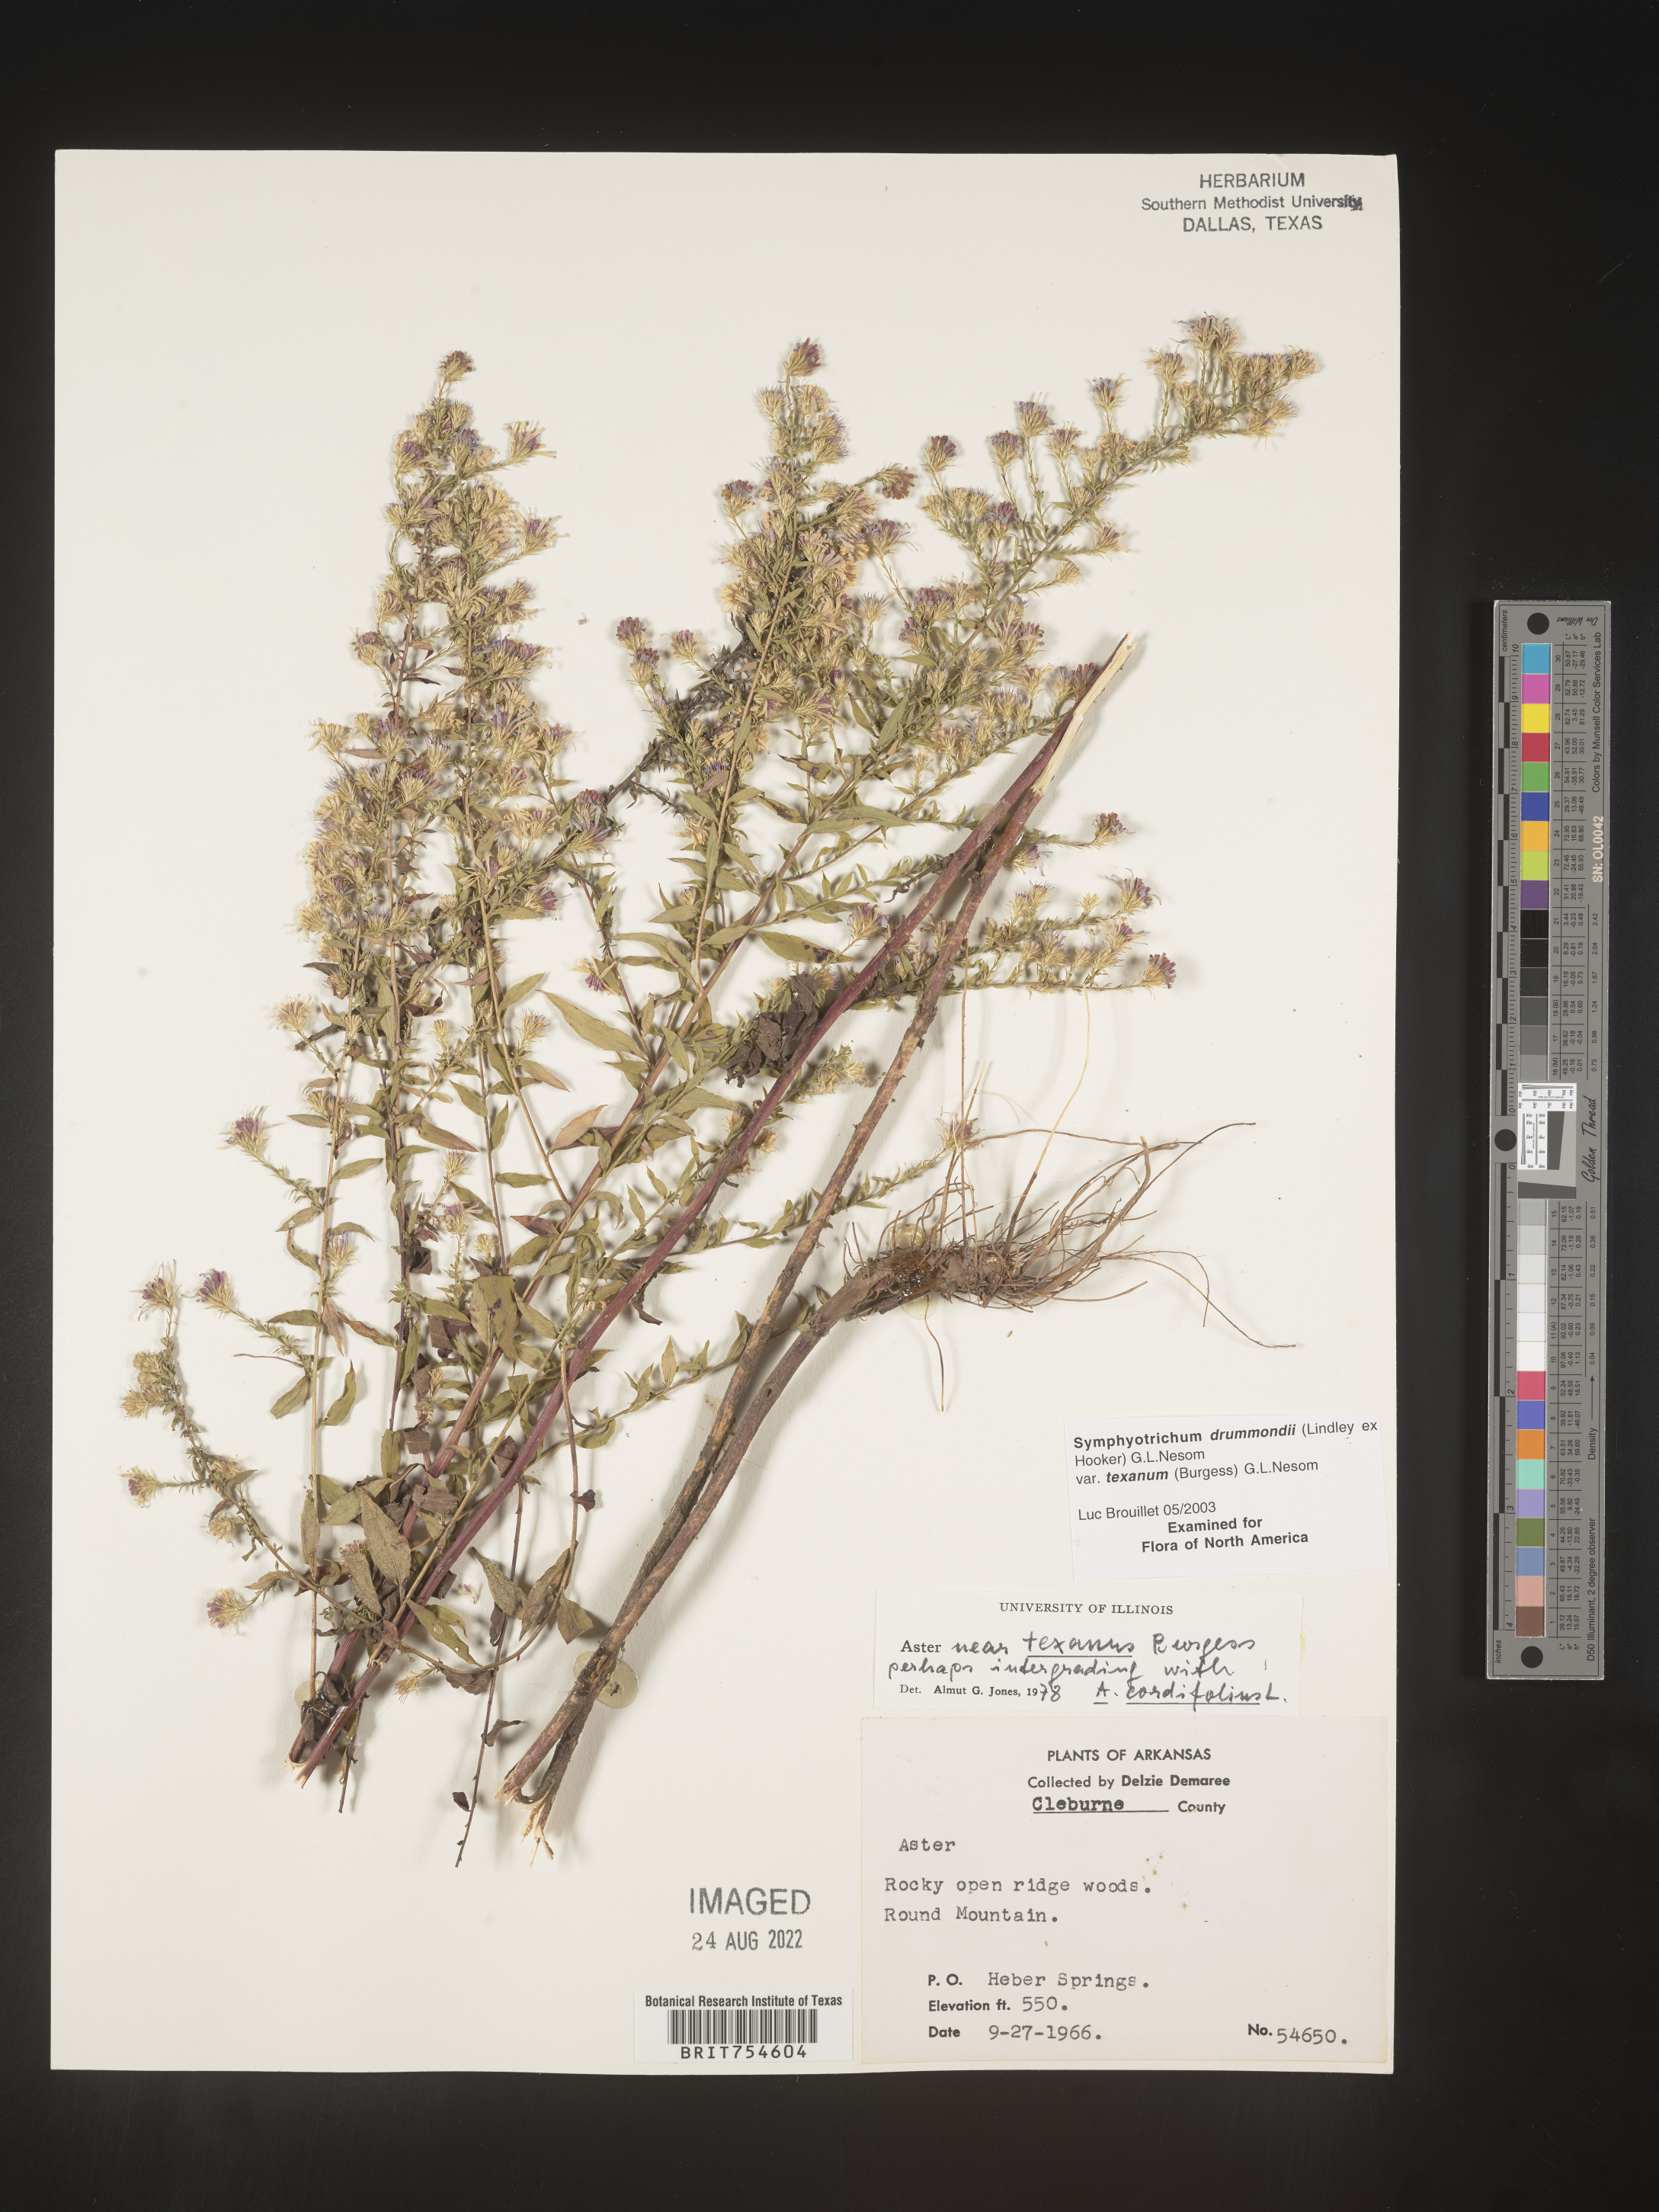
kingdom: Plantae
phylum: Tracheophyta
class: Magnoliopsida
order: Asterales
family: Asteraceae
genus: Symphyotrichum
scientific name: Symphyotrichum urophyllum
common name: Arrow-leaved aster
